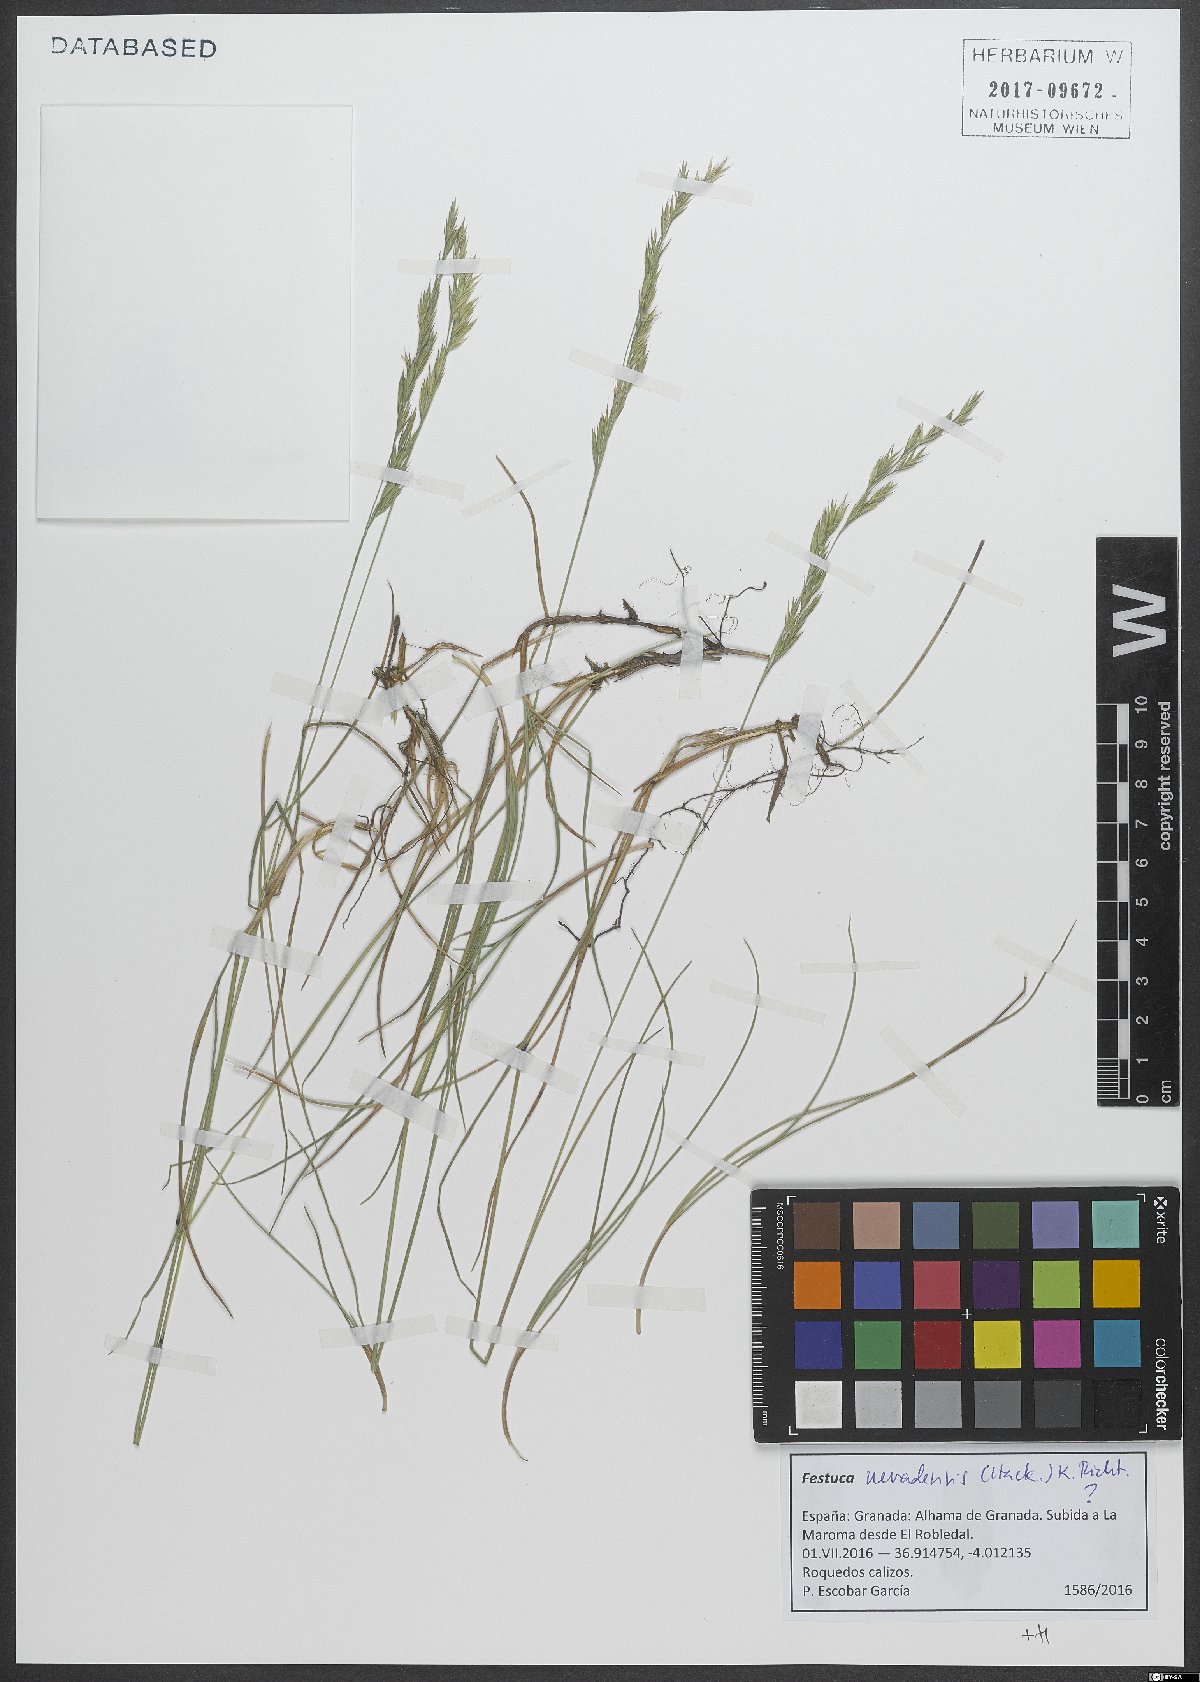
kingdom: Plantae
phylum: Tracheophyta
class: Liliopsida
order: Poales
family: Poaceae
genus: Festuca
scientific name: Festuca nevadensis
